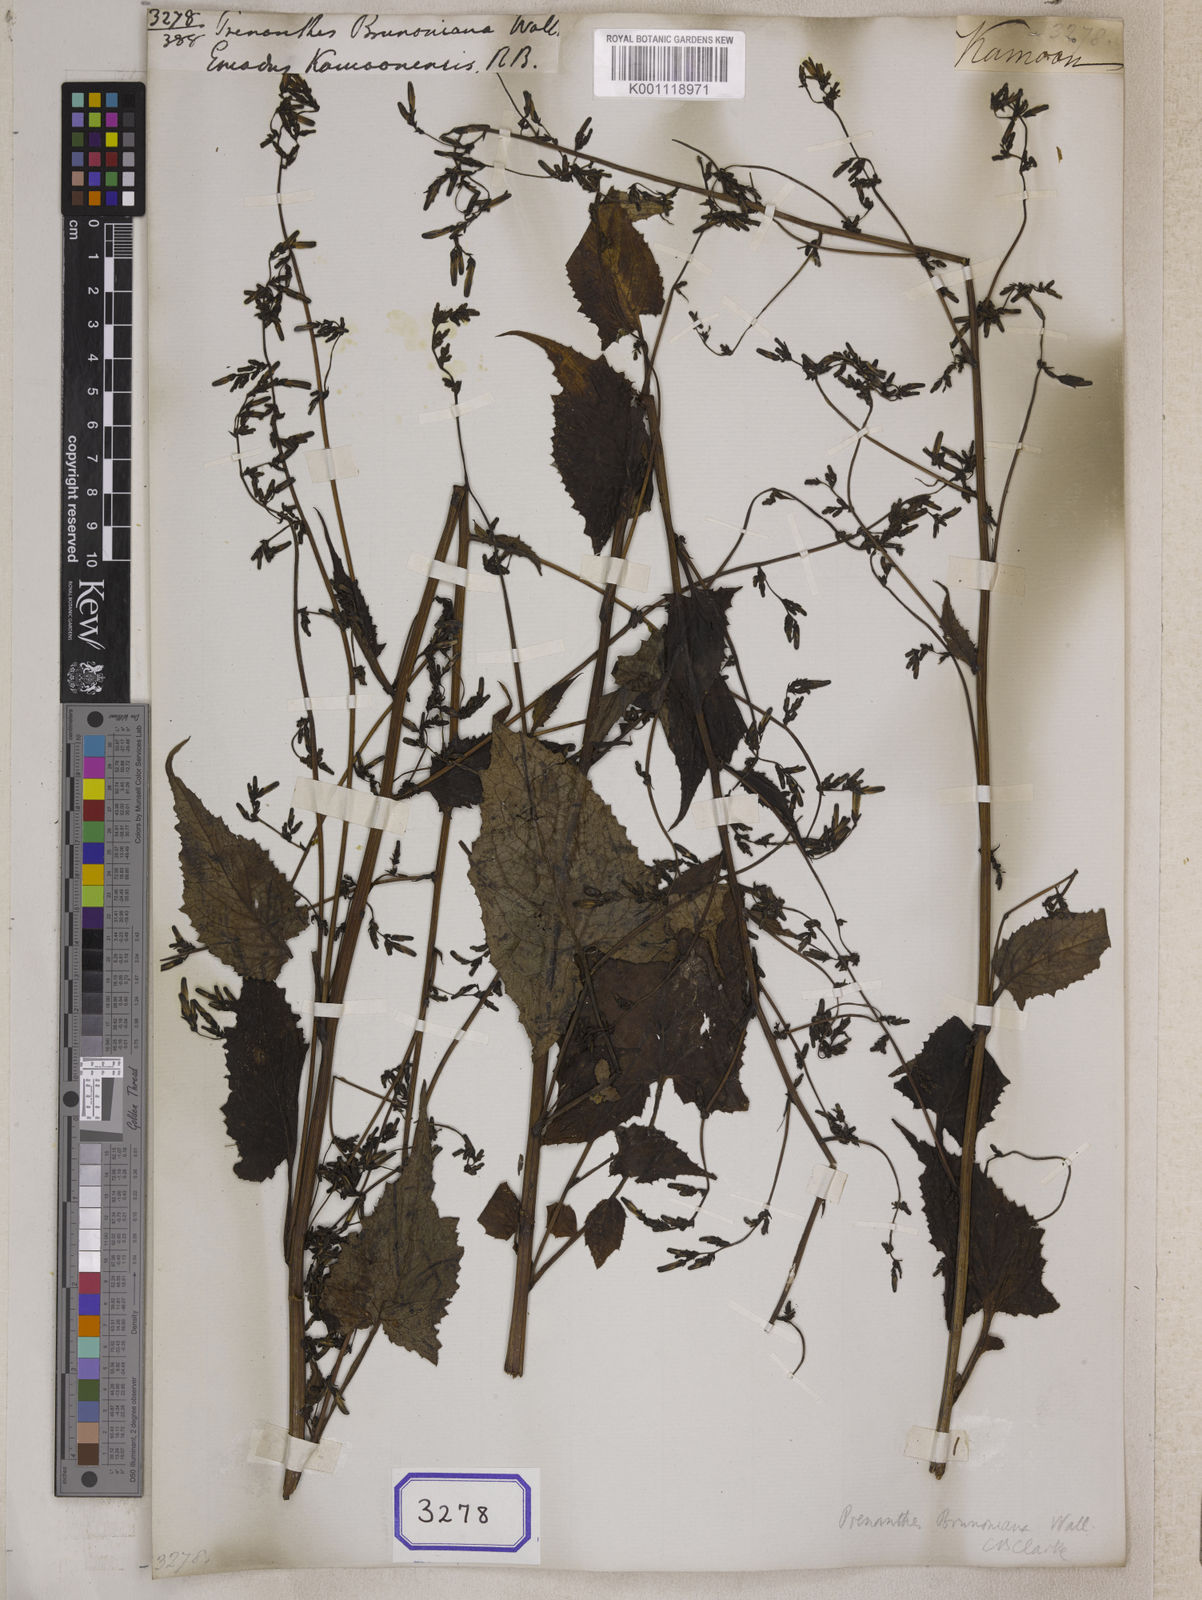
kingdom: Plantae
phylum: Tracheophyta
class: Magnoliopsida
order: Asterales
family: Asteraceae
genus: Prenanthes
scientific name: Prenanthes
